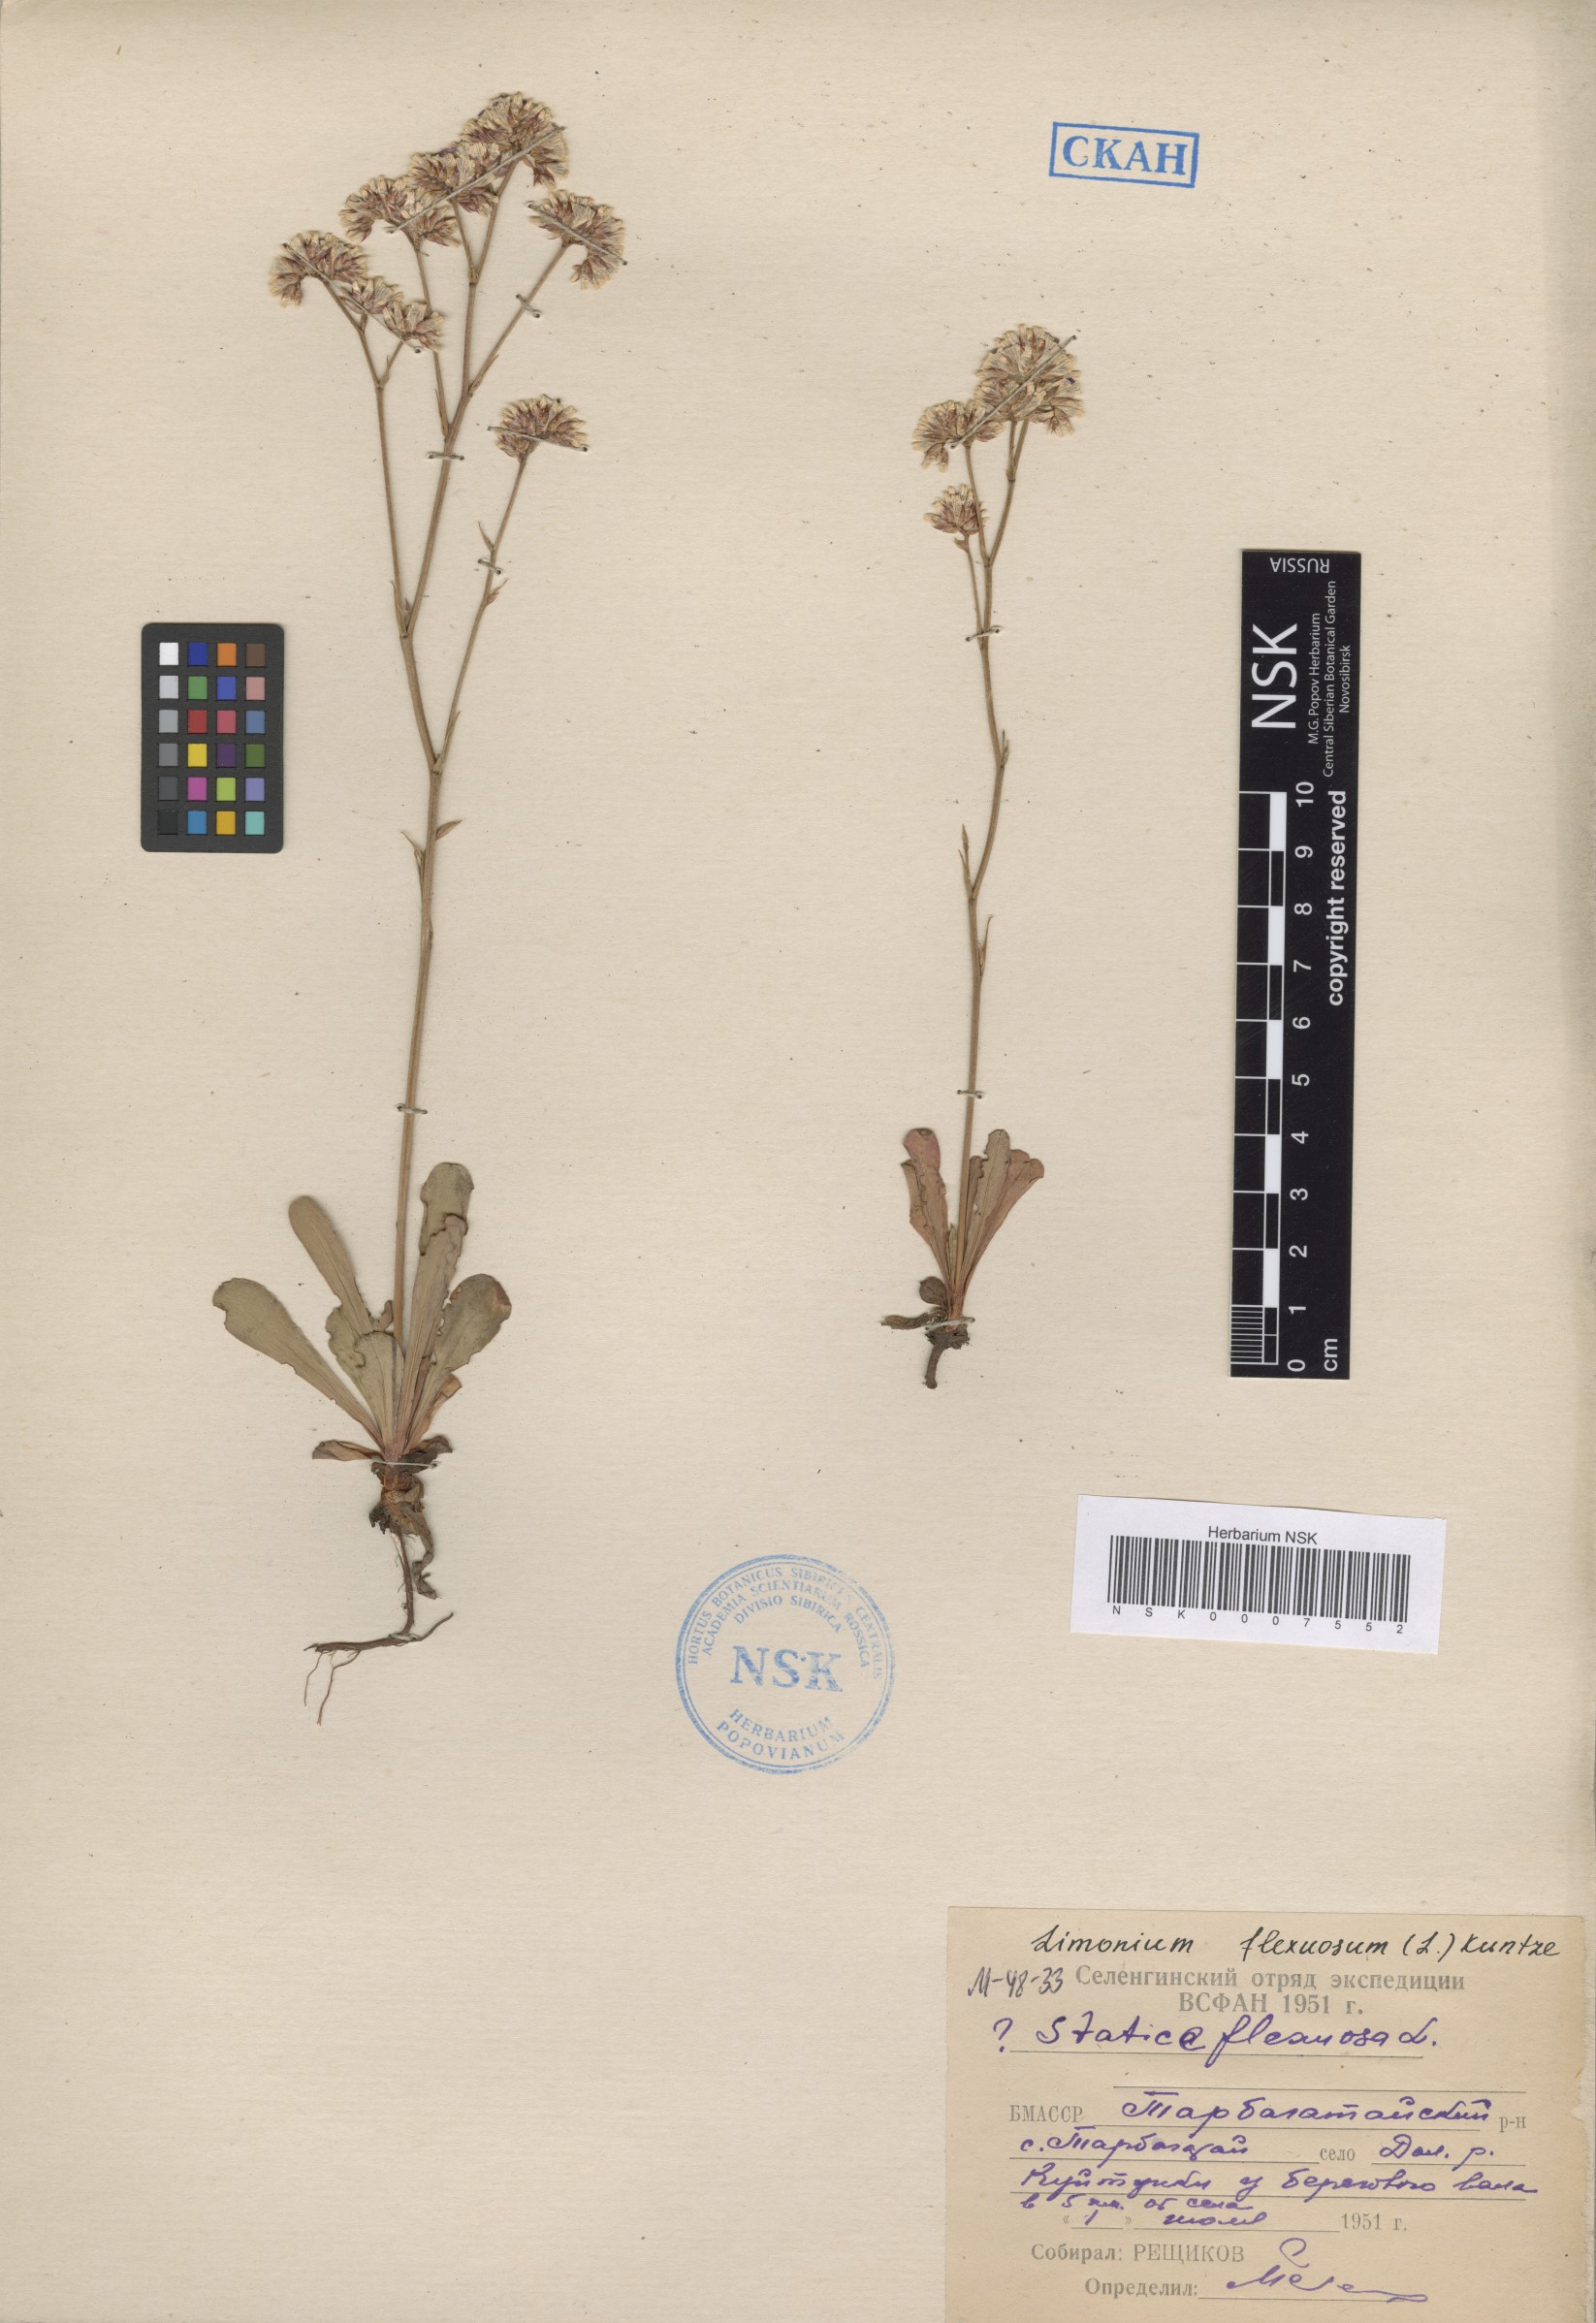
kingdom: Plantae
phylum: Tracheophyta
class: Magnoliopsida
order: Caryophyllales
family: Plumbaginaceae
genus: Limonium
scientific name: Limonium flexuosum
